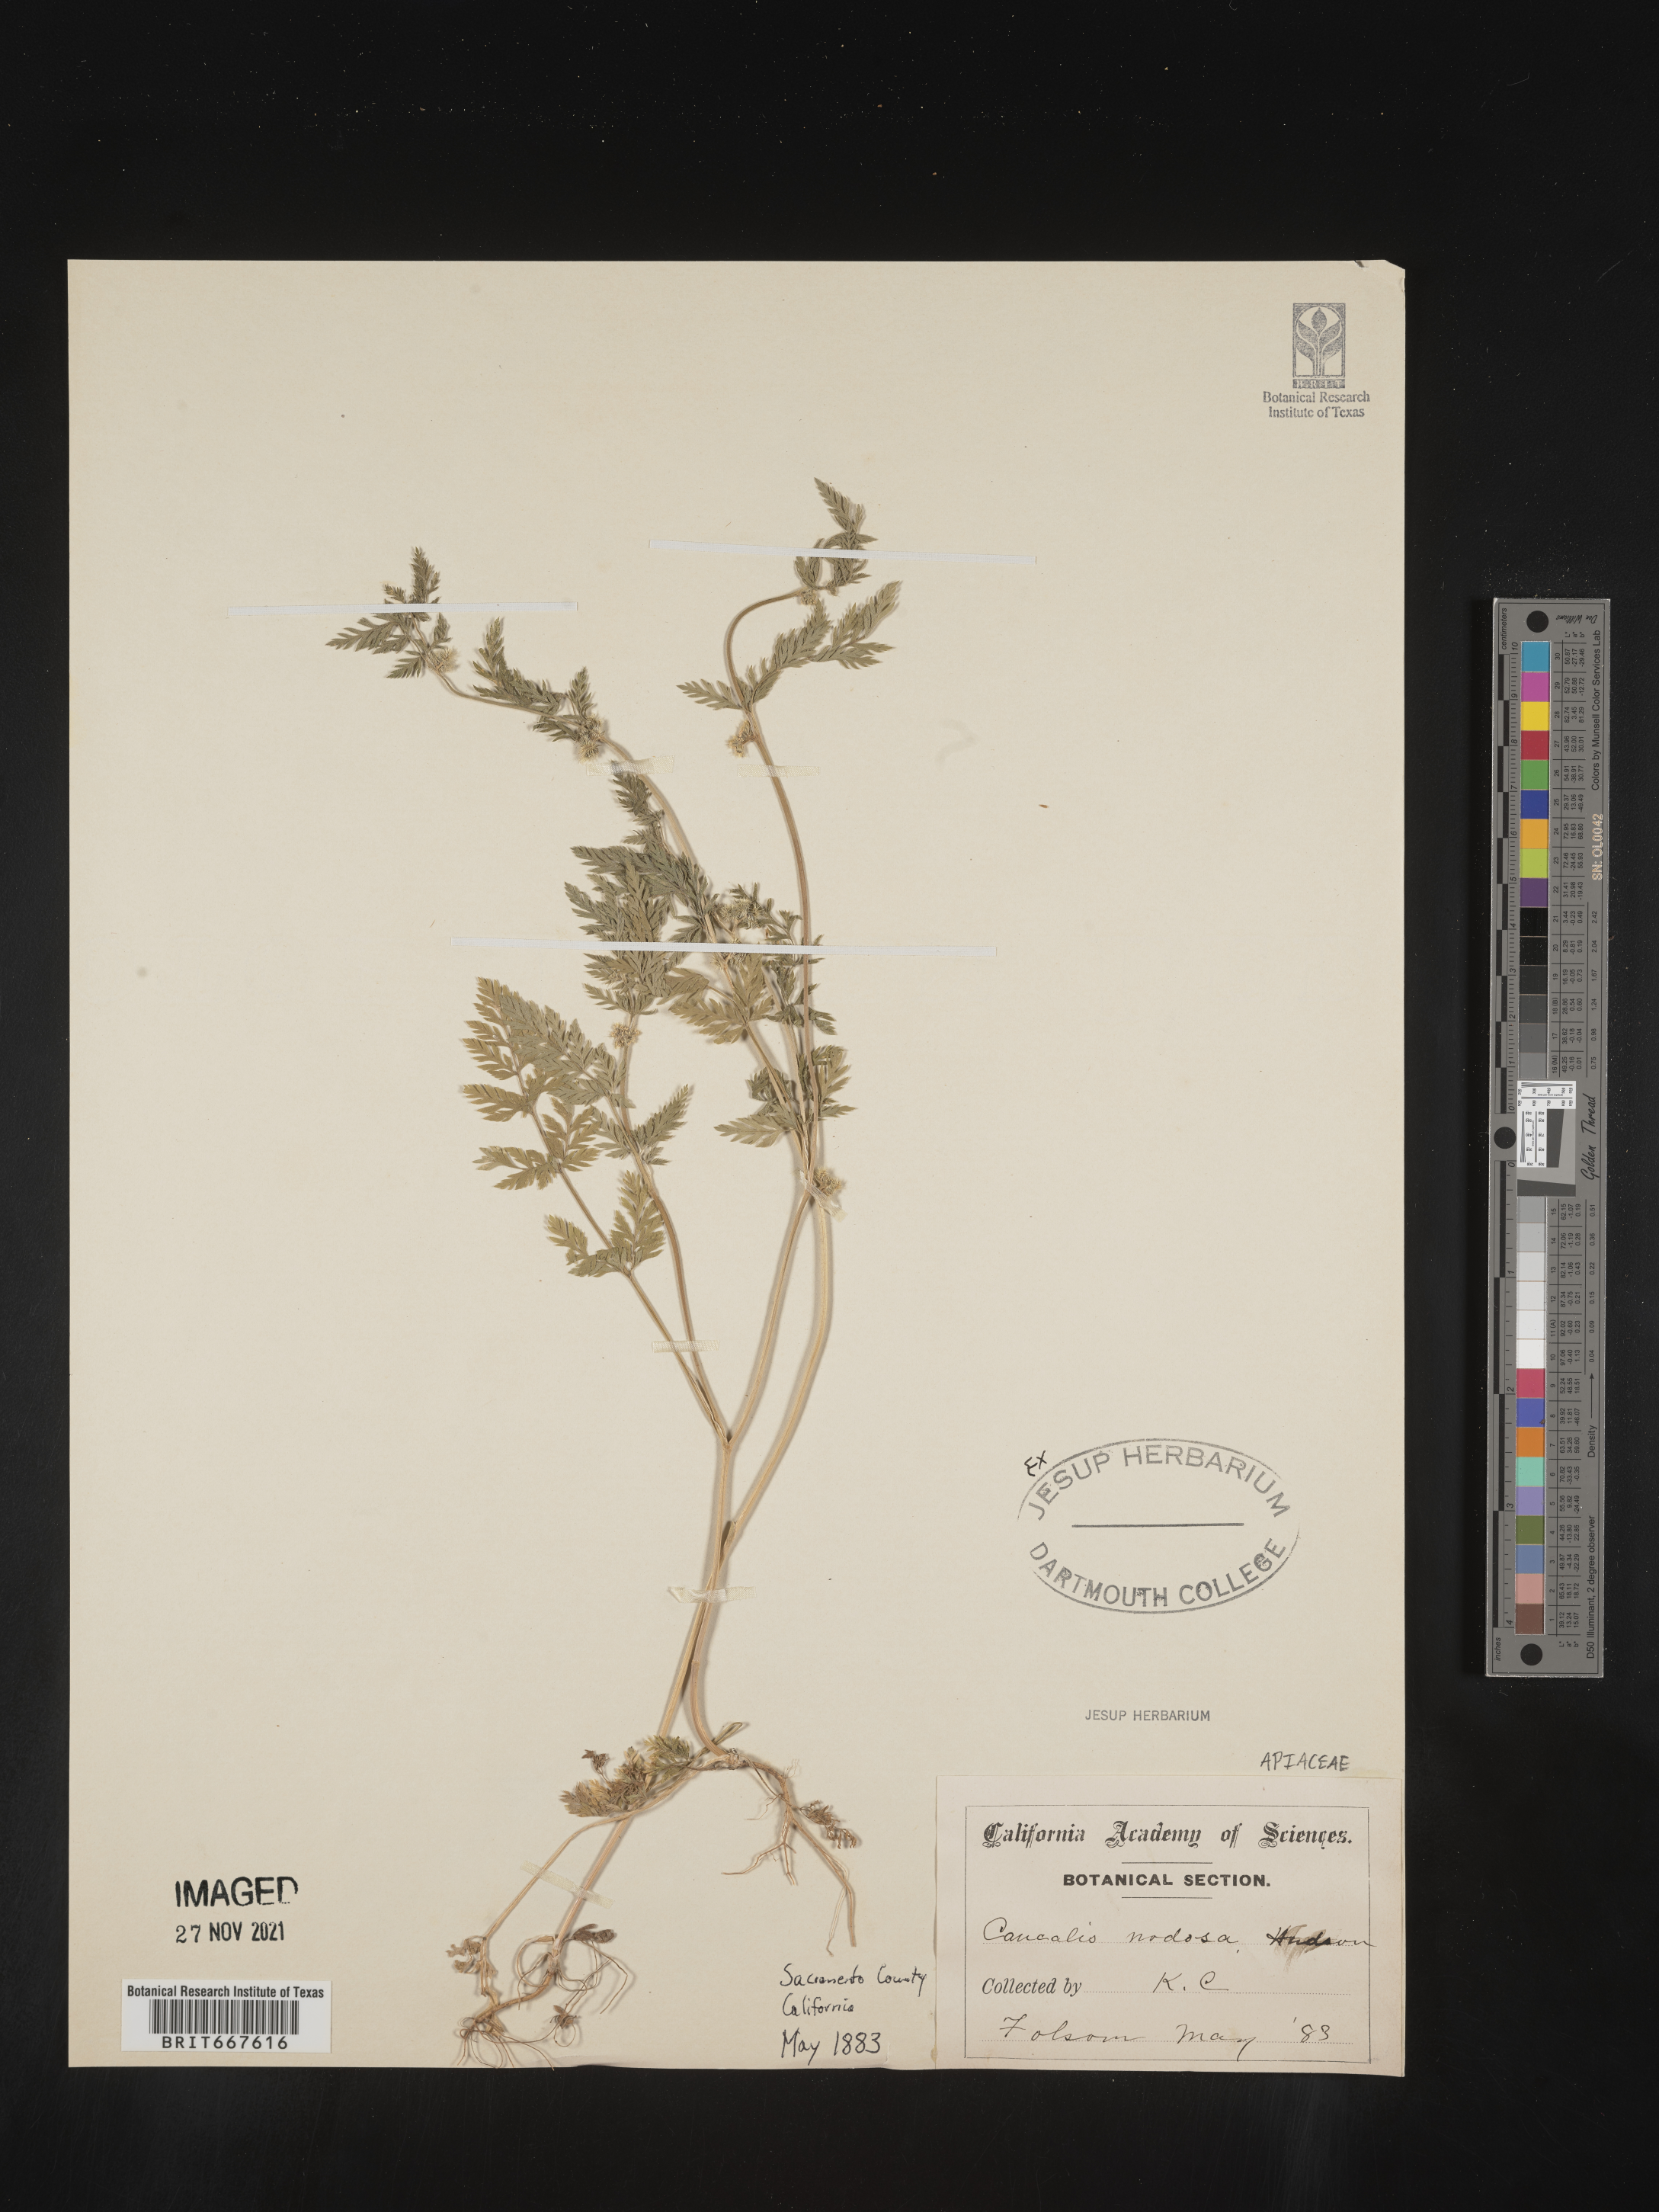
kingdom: Plantae
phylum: Tracheophyta
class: Magnoliopsida
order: Apiales
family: Apiaceae
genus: Caucalis
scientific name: Caucalis
